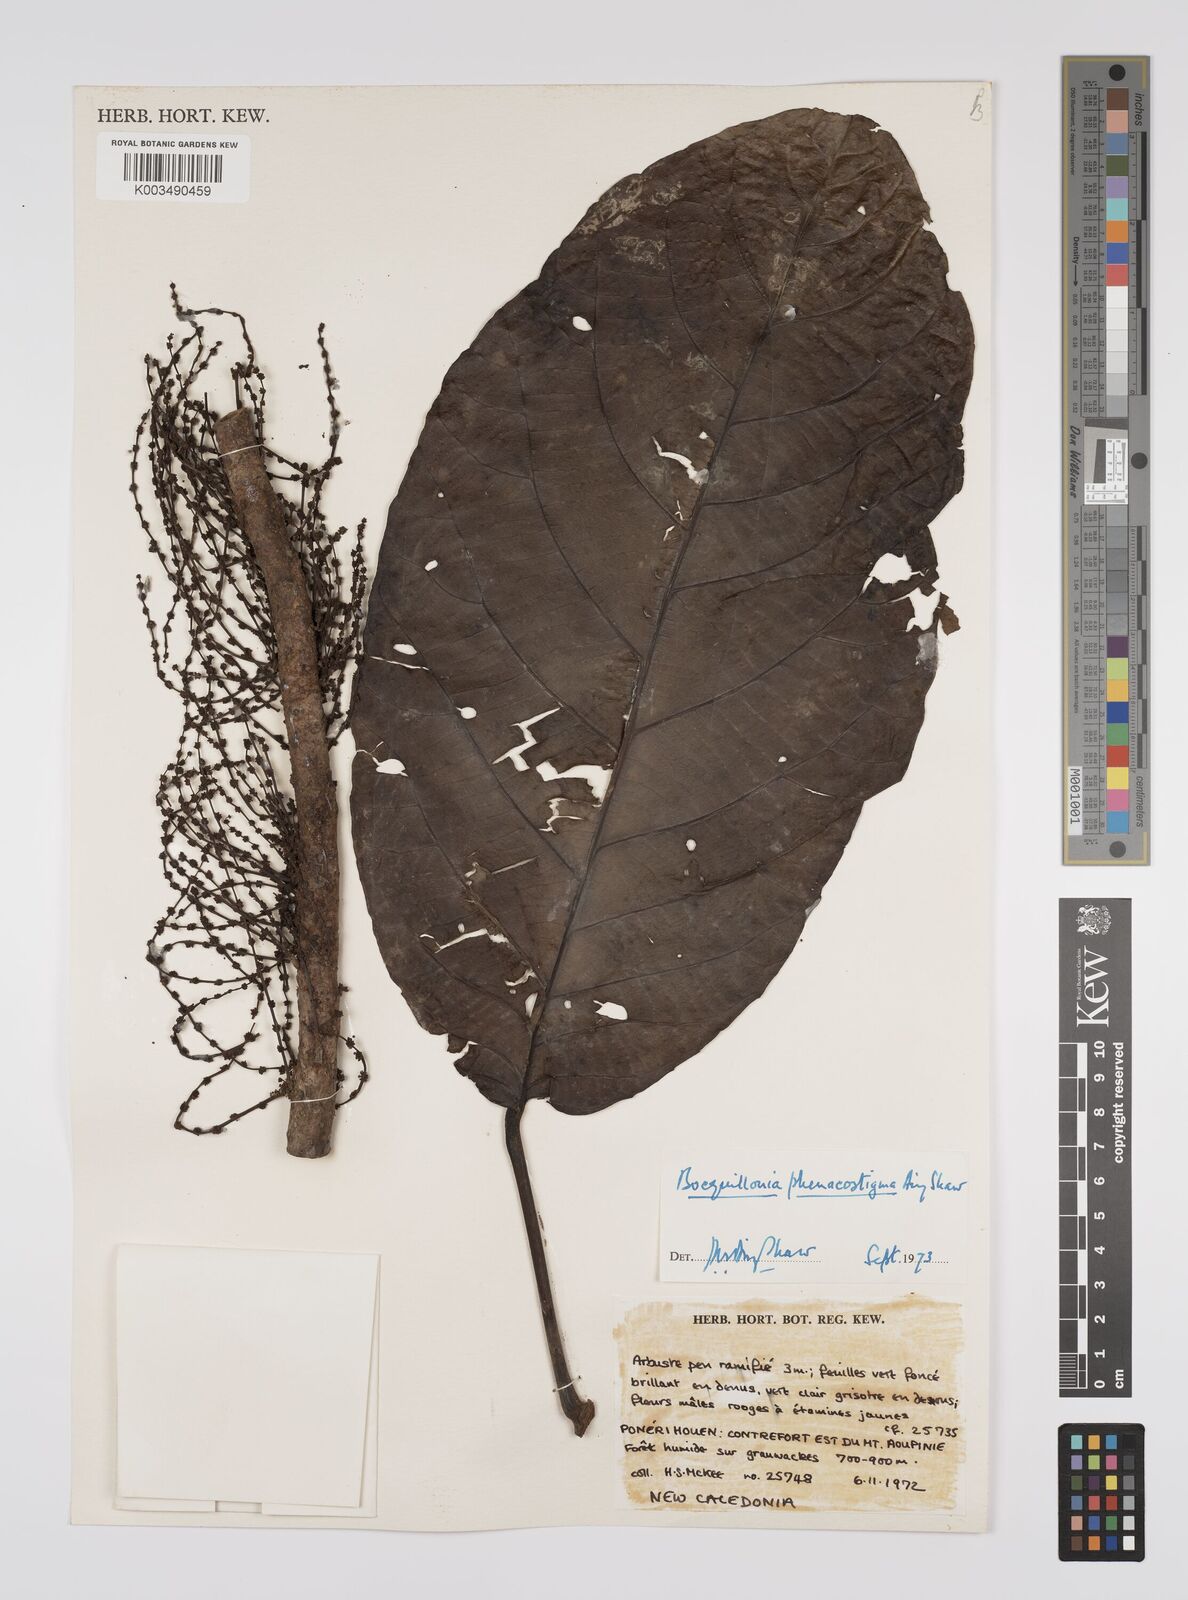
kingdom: Plantae
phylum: Tracheophyta
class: Magnoliopsida
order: Malpighiales
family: Euphorbiaceae
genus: Bocquillonia
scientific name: Bocquillonia phenacostigma
